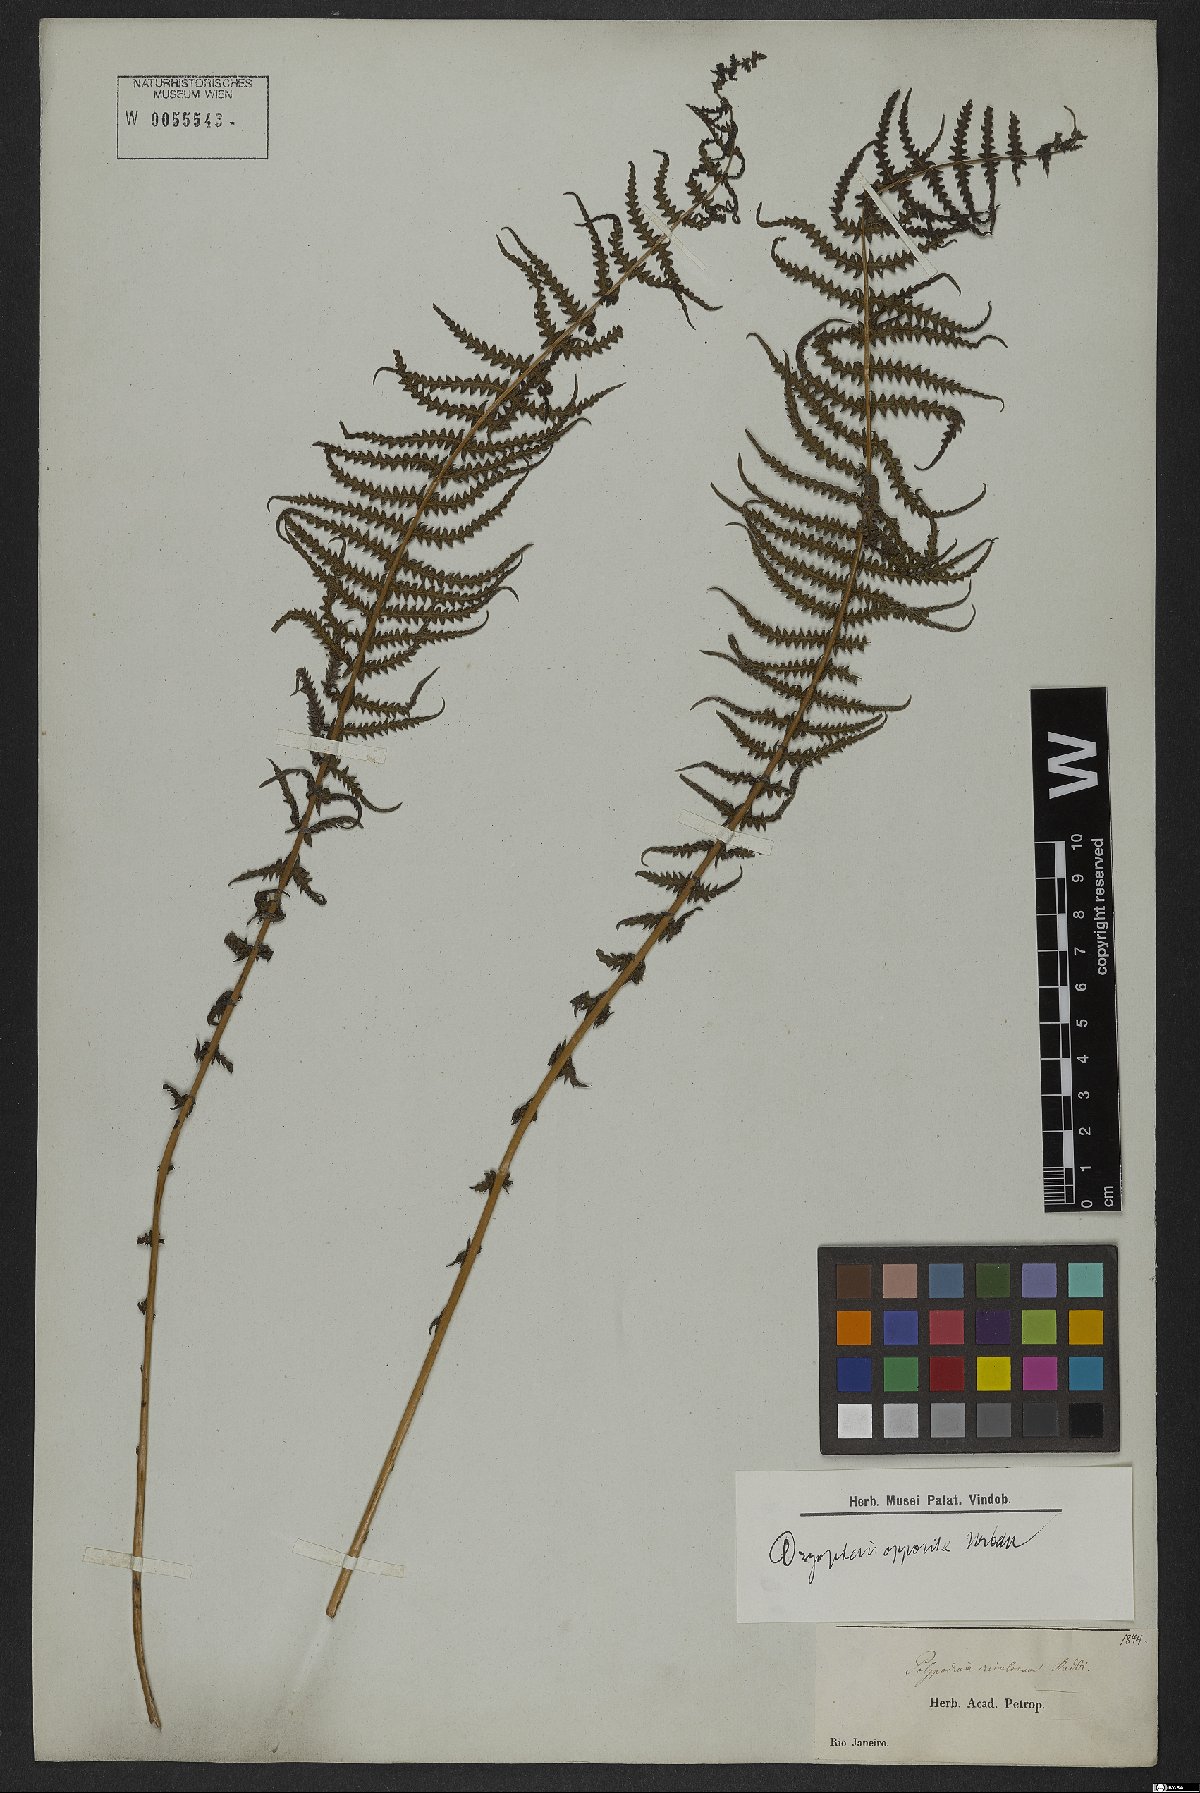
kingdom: Plantae
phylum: Tracheophyta
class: Polypodiopsida
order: Polypodiales
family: Thelypteridaceae
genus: Amauropelta
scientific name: Amauropelta opposita
